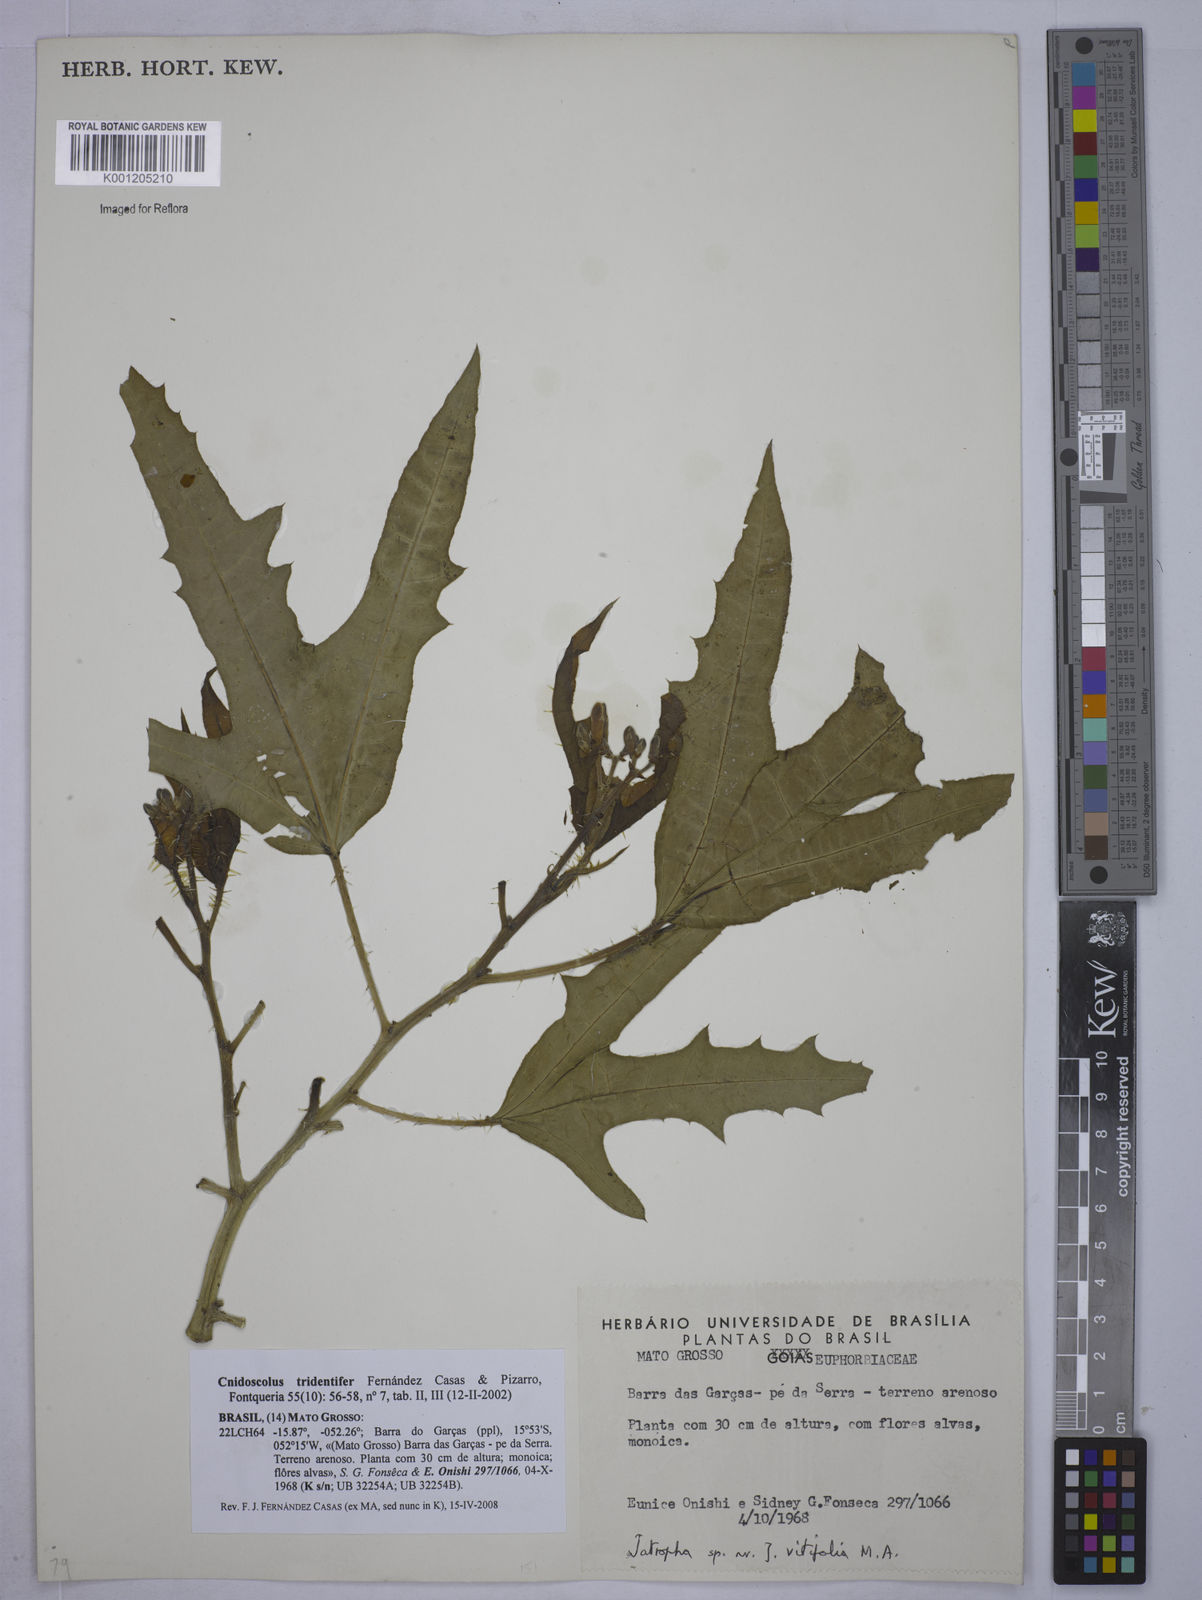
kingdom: Plantae
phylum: Tracheophyta
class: Magnoliopsida
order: Malpighiales
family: Euphorbiaceae
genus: Cnidoscolus
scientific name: Cnidoscolus tridentifer
